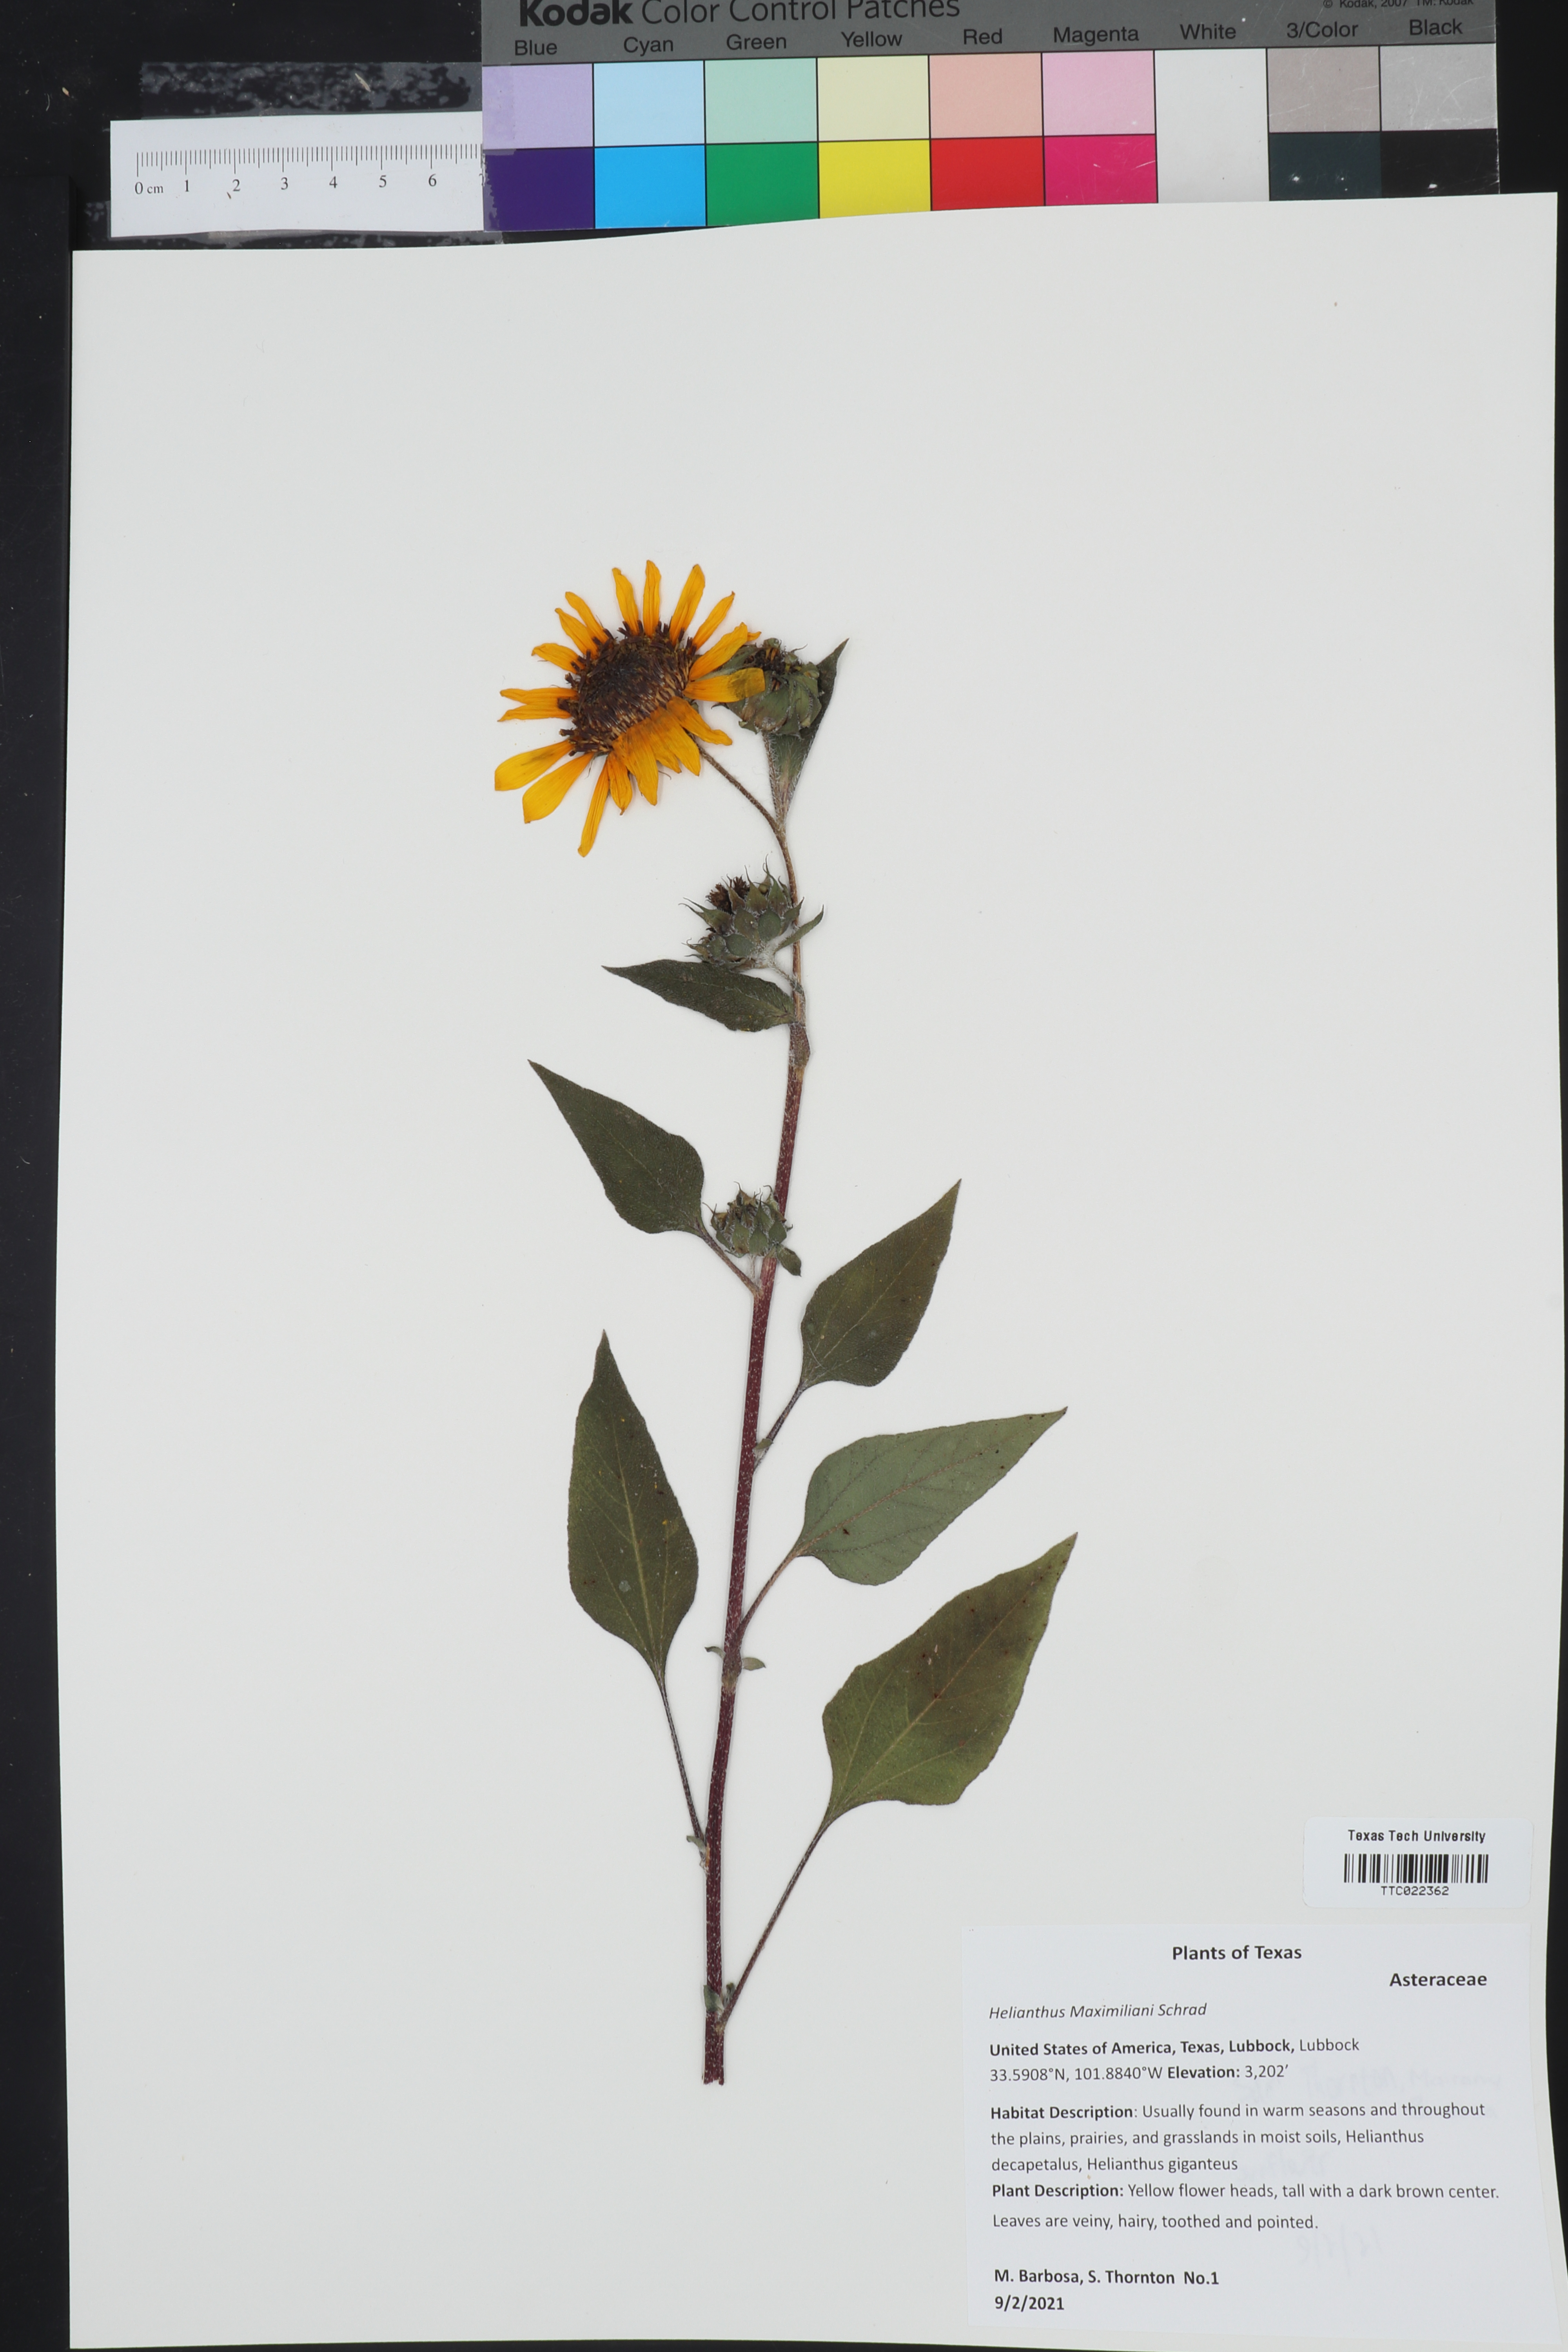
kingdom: Plantae
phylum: Tracheophyta
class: Magnoliopsida
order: Asterales
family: Asteraceae
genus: Helianthus
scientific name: Helianthus maximiliani
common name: Maximilian's sunflower
